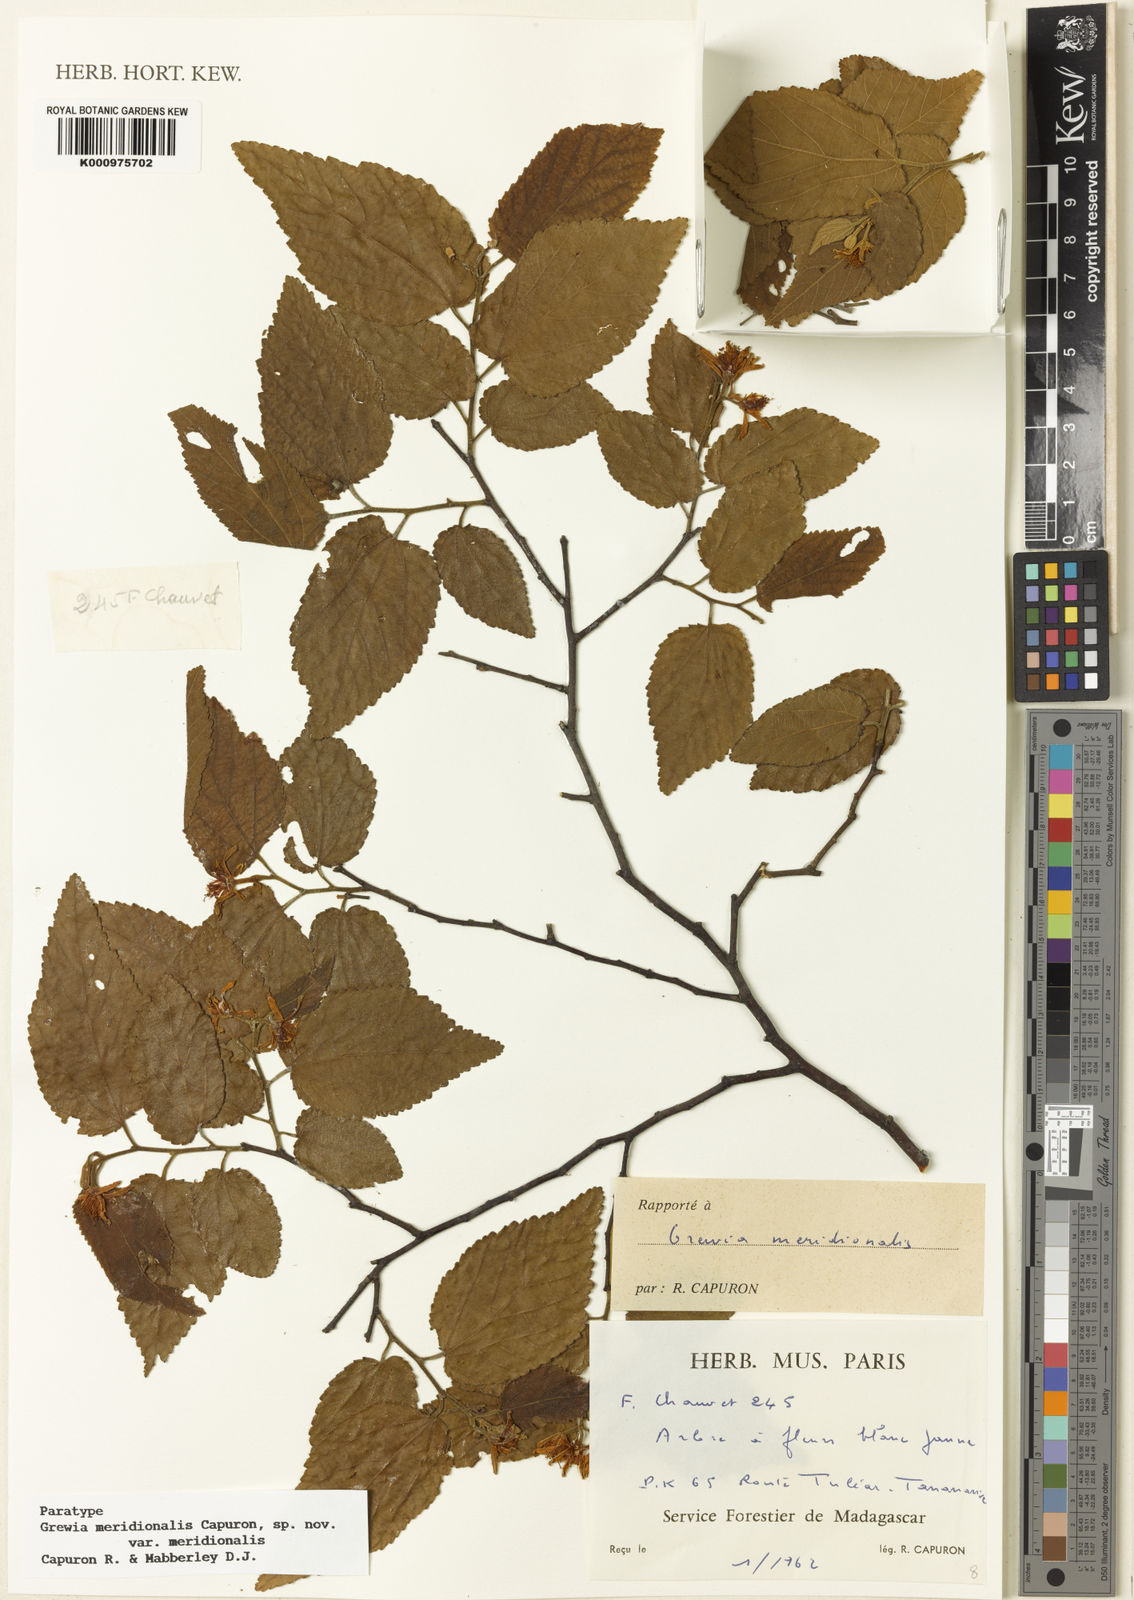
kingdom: Plantae
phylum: Tracheophyta
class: Magnoliopsida
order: Malvales
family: Malvaceae
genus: Grewia
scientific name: Grewia meridionalis
